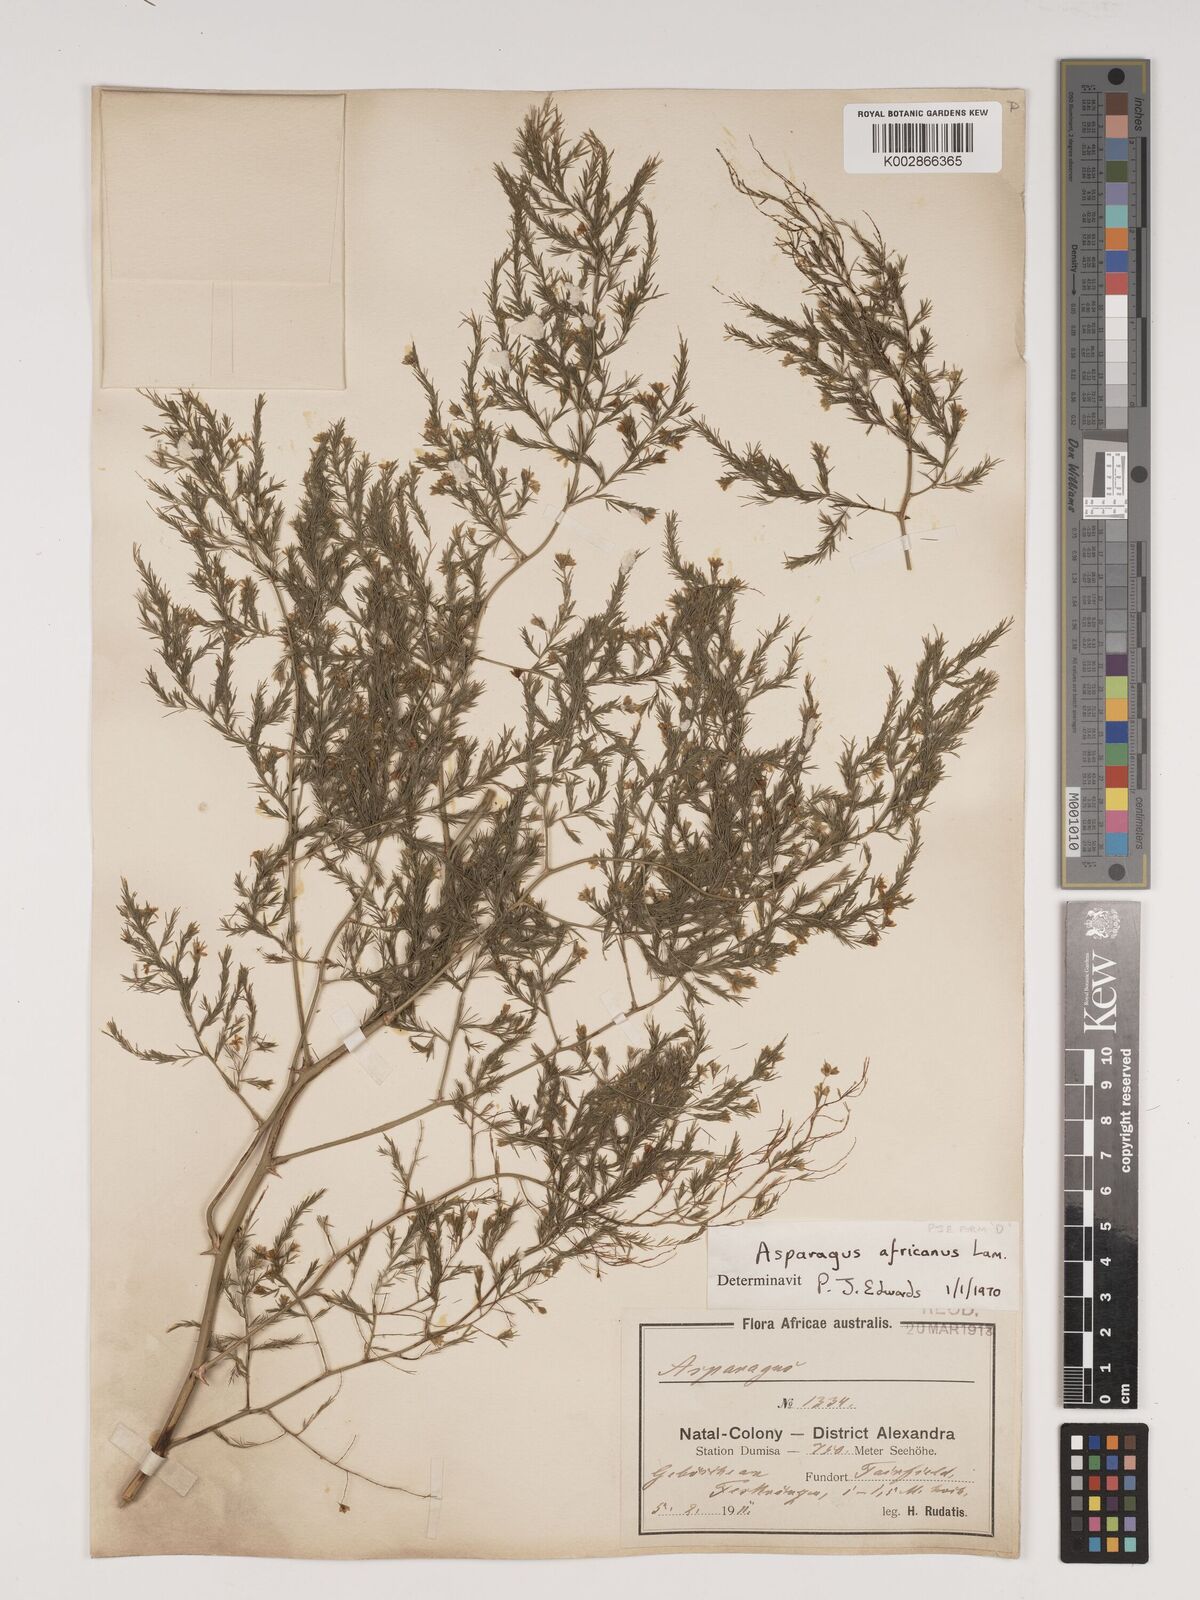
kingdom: Plantae
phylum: Tracheophyta
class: Liliopsida
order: Asparagales
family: Asparagaceae
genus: Asparagus
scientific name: Asparagus africanus
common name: Asparagus-fern
